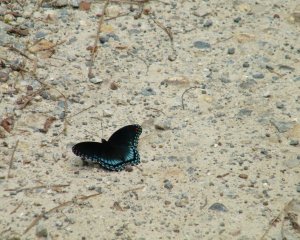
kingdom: Animalia
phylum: Arthropoda
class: Insecta
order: Lepidoptera
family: Nymphalidae
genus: Limenitis
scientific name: Limenitis astyanax
